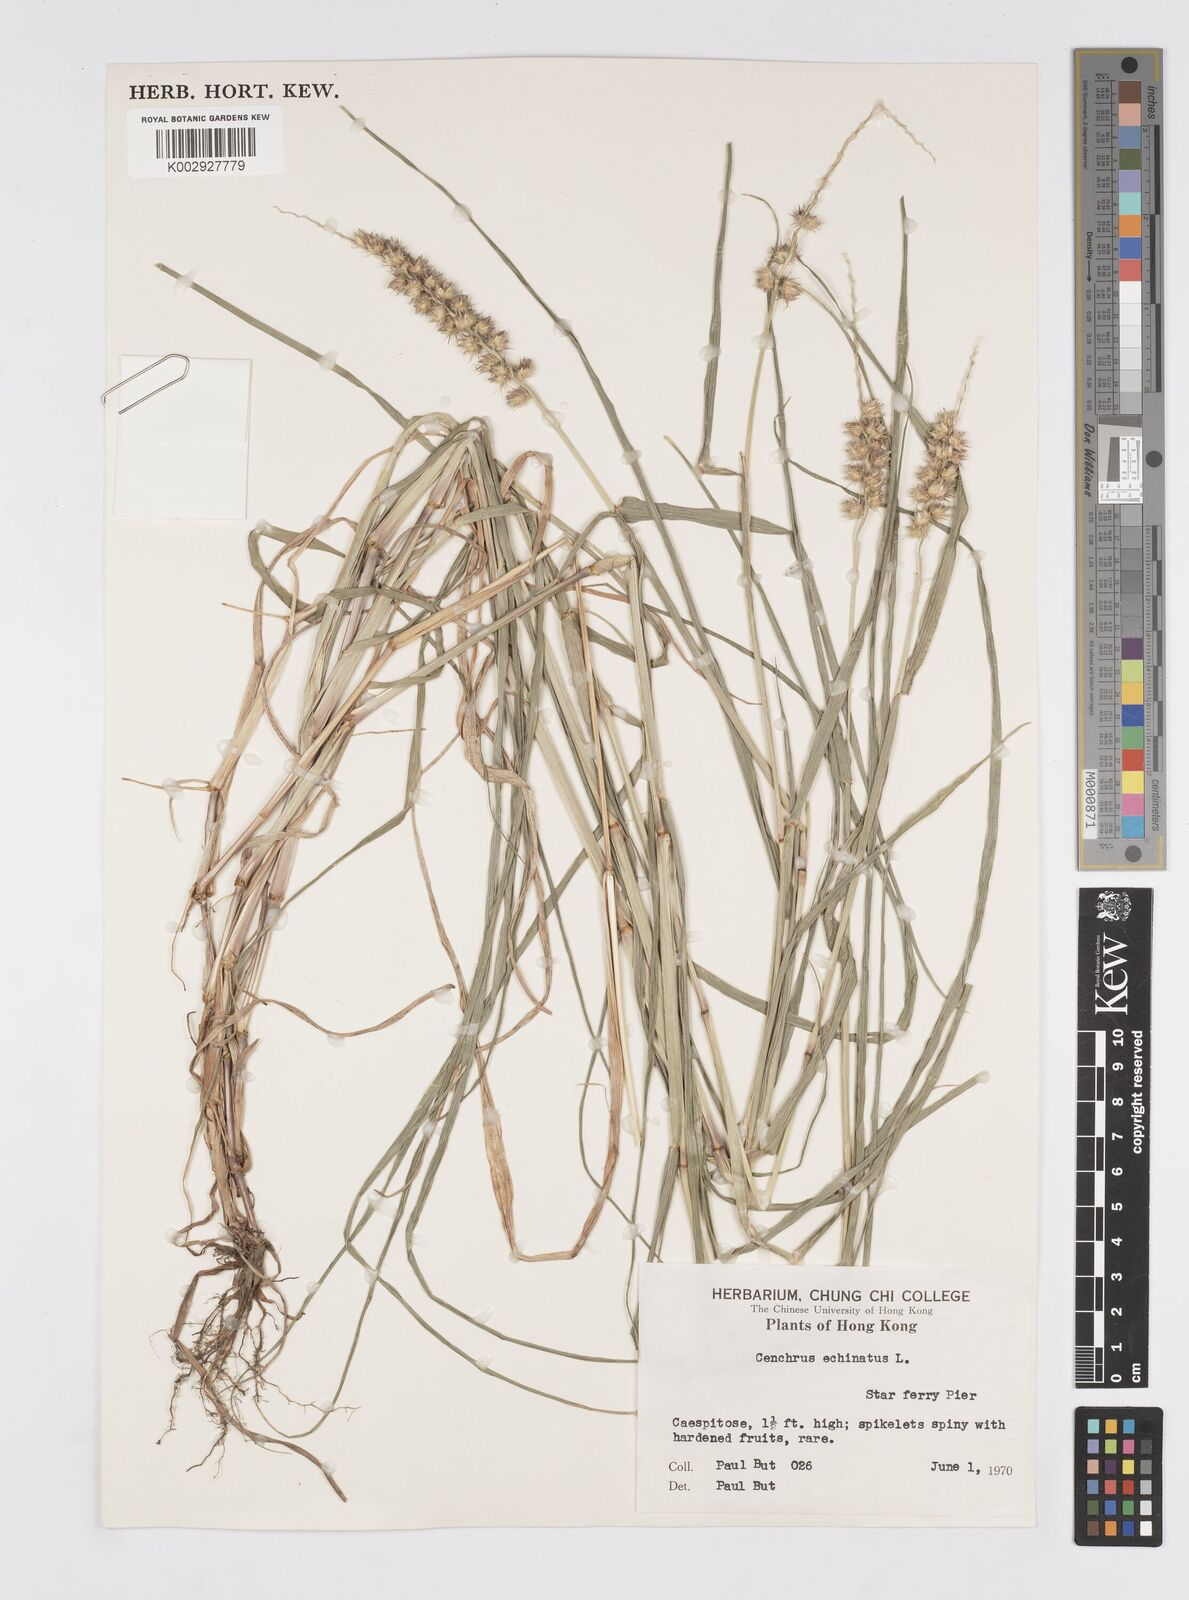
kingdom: Plantae
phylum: Tracheophyta
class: Liliopsida
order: Poales
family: Poaceae
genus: Cenchrus
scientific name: Cenchrus echinatus
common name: Southern sandbur
